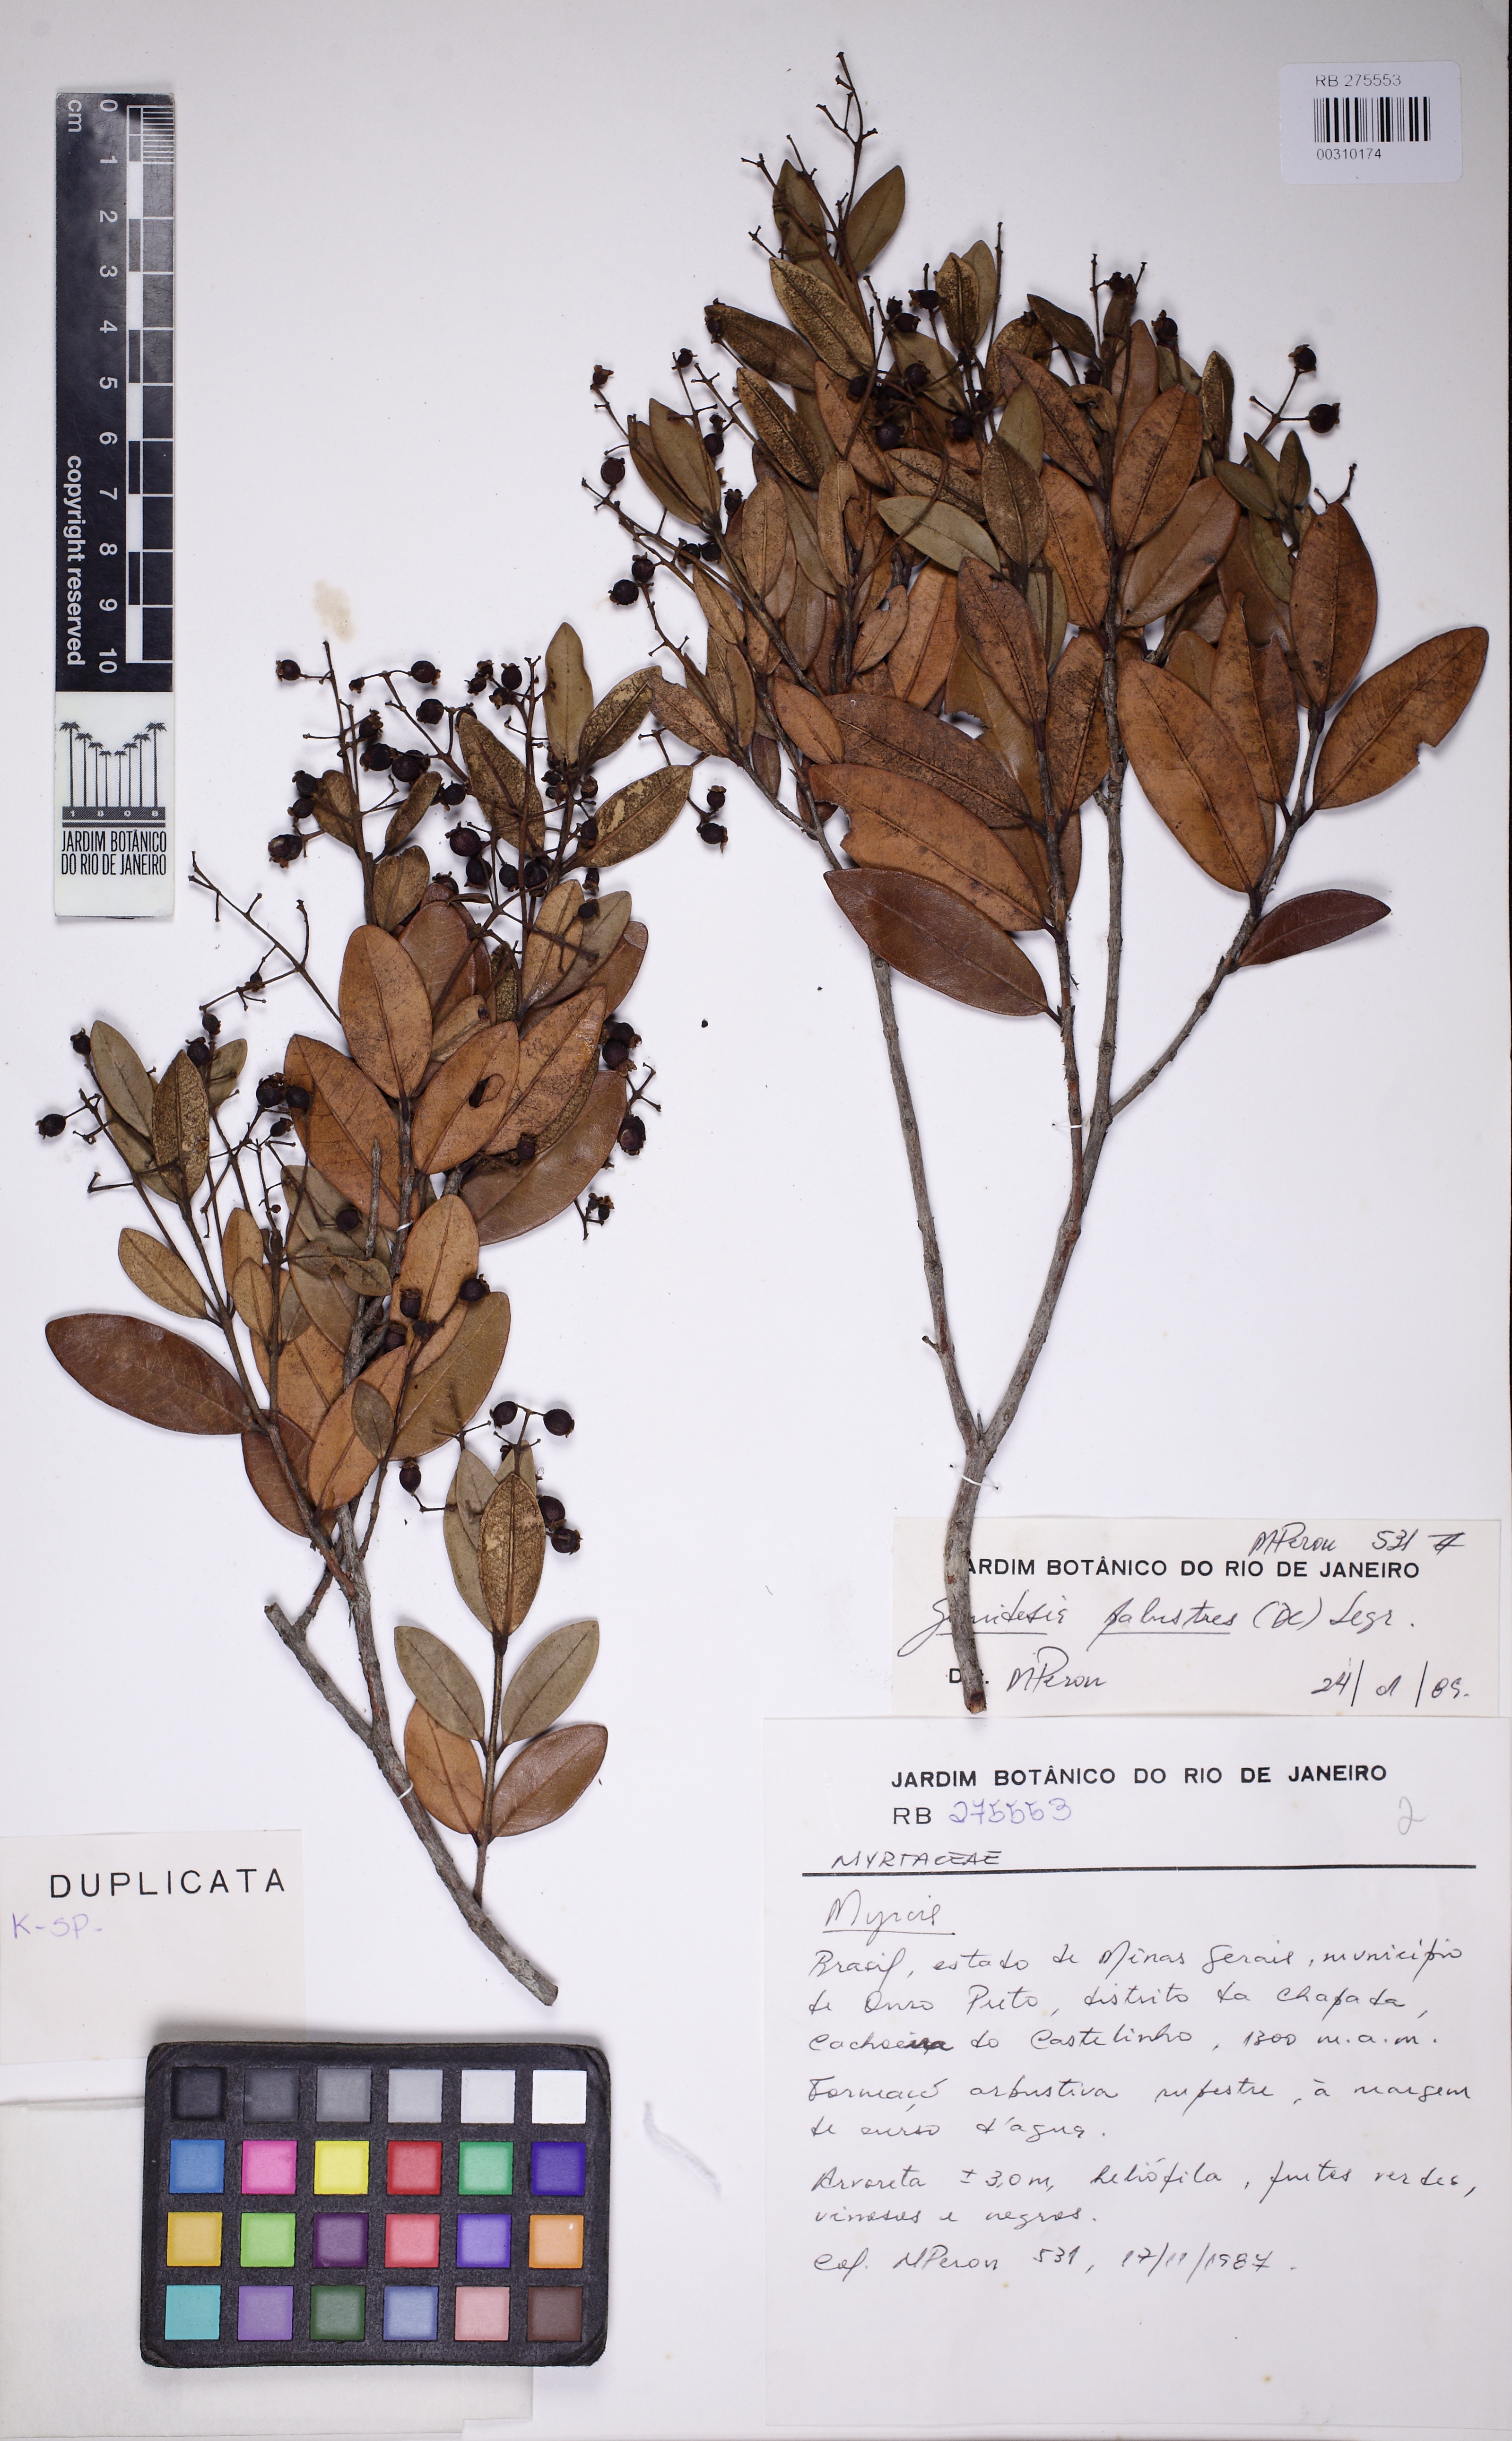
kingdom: Plantae
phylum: Tracheophyta
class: Magnoliopsida
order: Myrtales
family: Myrtaceae
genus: Myrcia
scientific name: Myrcia retorta
